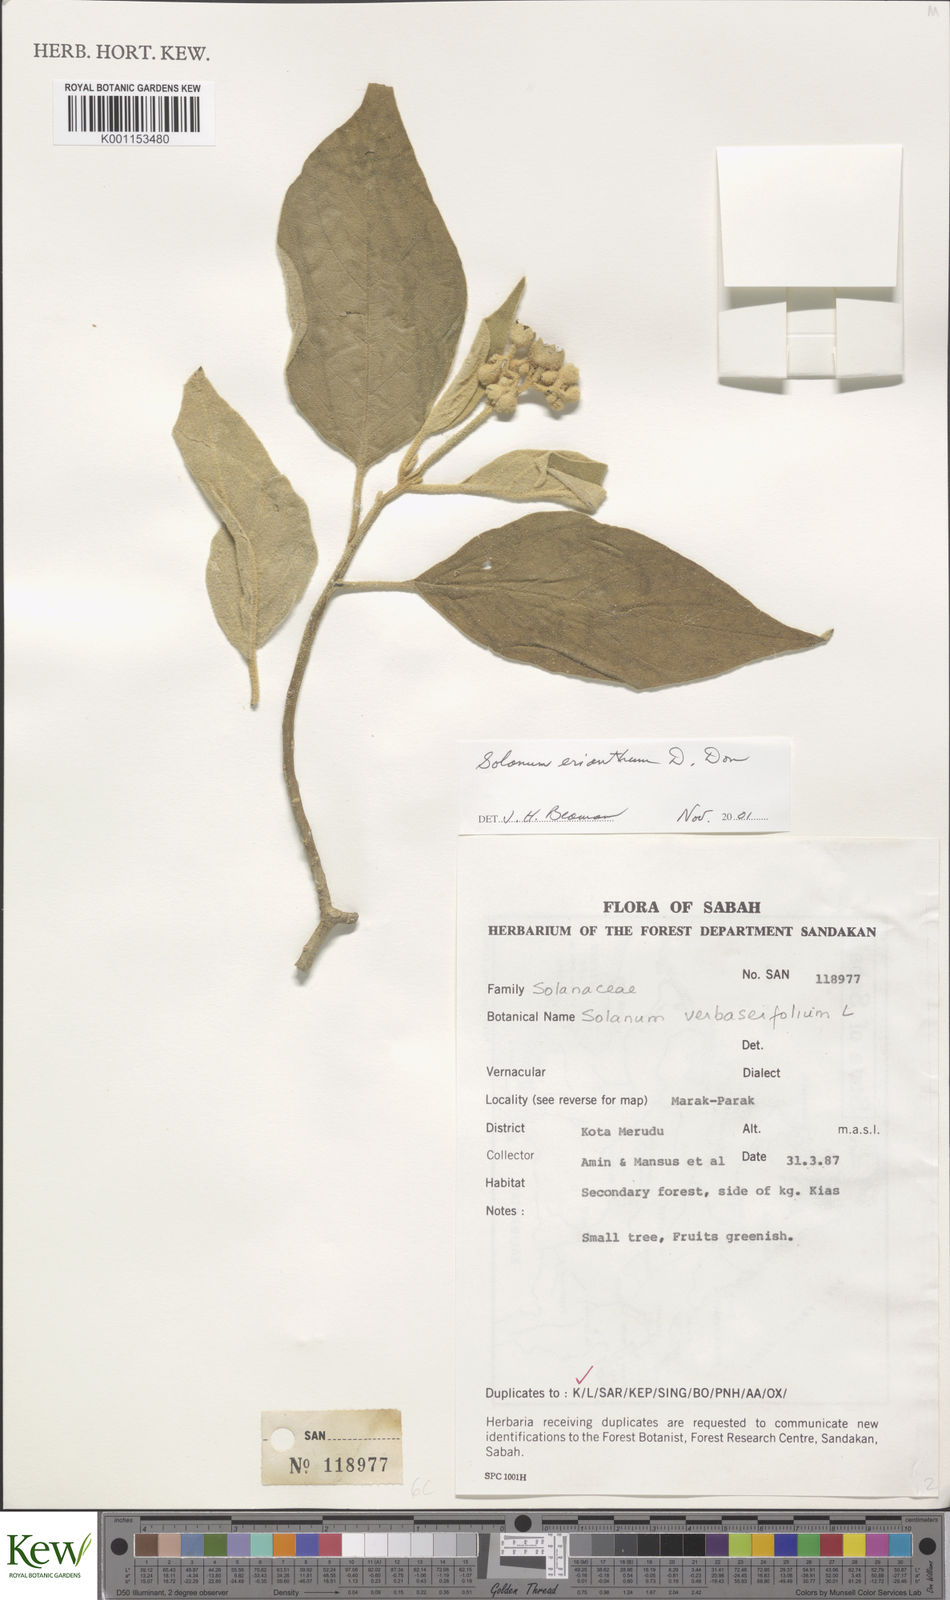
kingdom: Plantae
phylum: Tracheophyta
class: Magnoliopsida
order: Solanales
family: Solanaceae
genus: Solanum
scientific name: Solanum erianthum
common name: Tobacco-tree
